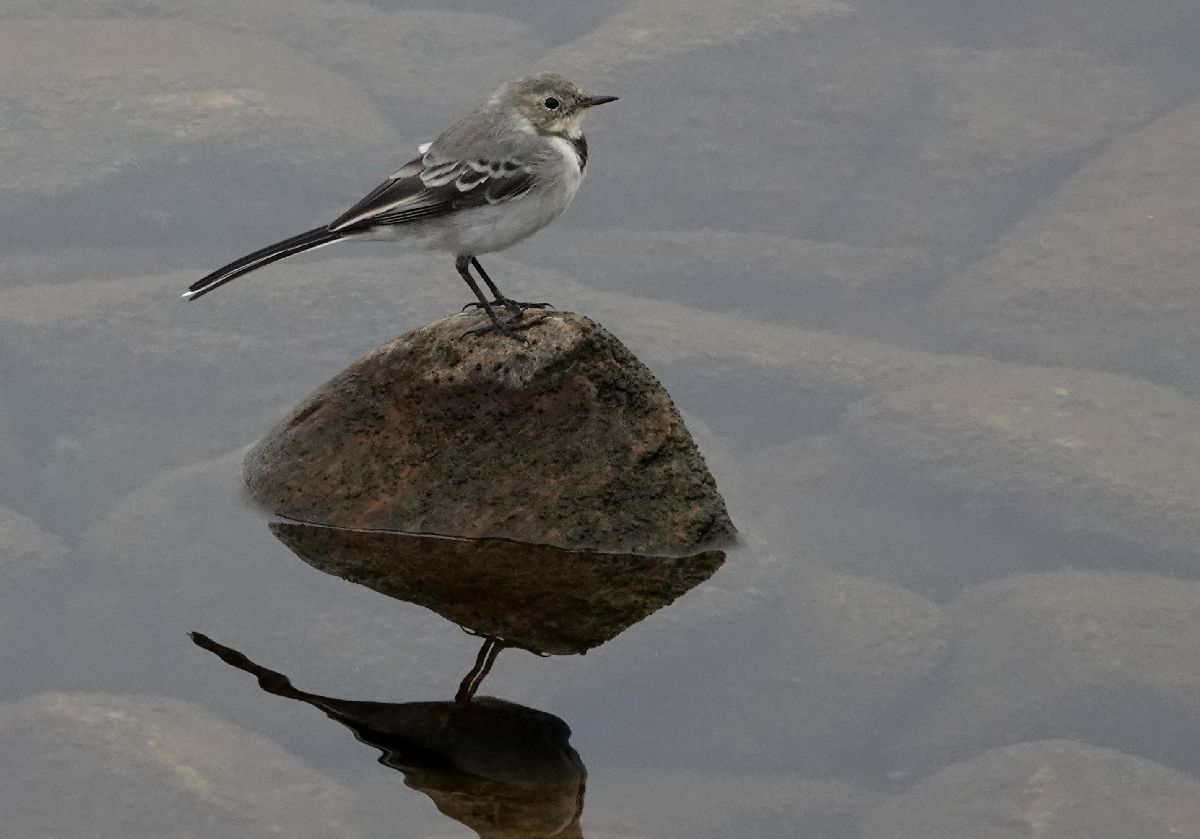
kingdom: Animalia
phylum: Chordata
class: Aves
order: Passeriformes
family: Motacillidae
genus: Motacilla
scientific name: Motacilla alba
